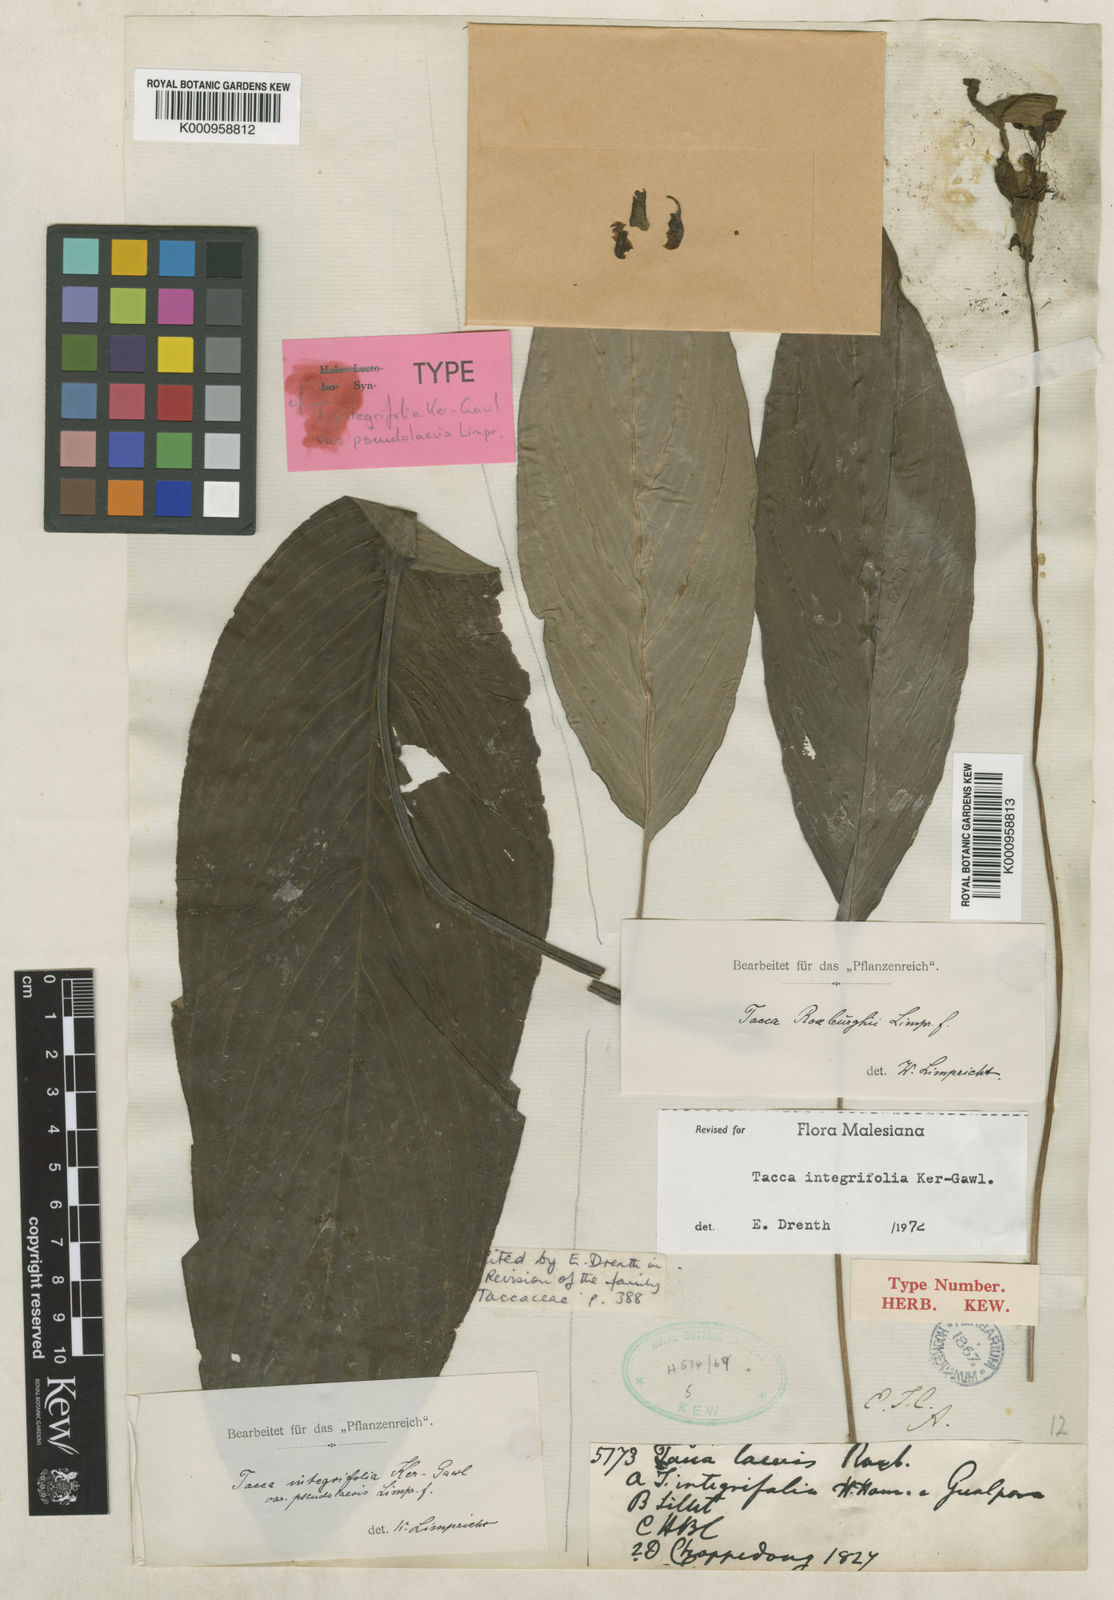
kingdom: Plantae
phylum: Tracheophyta
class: Liliopsida
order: Dioscoreales
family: Dioscoreaceae
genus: Tacca
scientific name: Tacca integrifolia
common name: Batplant
